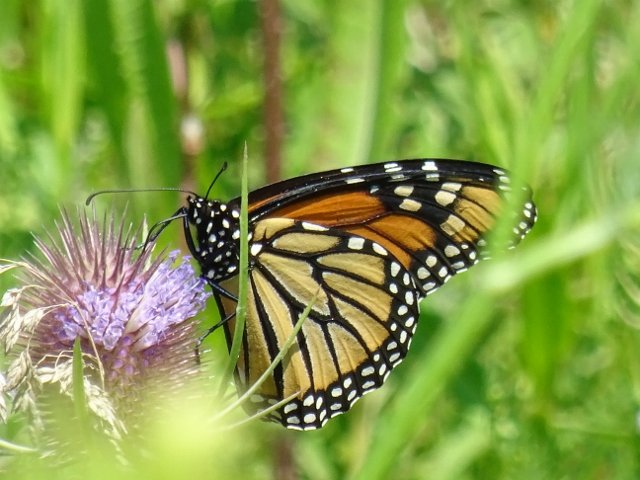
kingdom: Animalia
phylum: Arthropoda
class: Insecta
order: Lepidoptera
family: Nymphalidae
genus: Danaus
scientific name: Danaus plexippus
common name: Monarch
